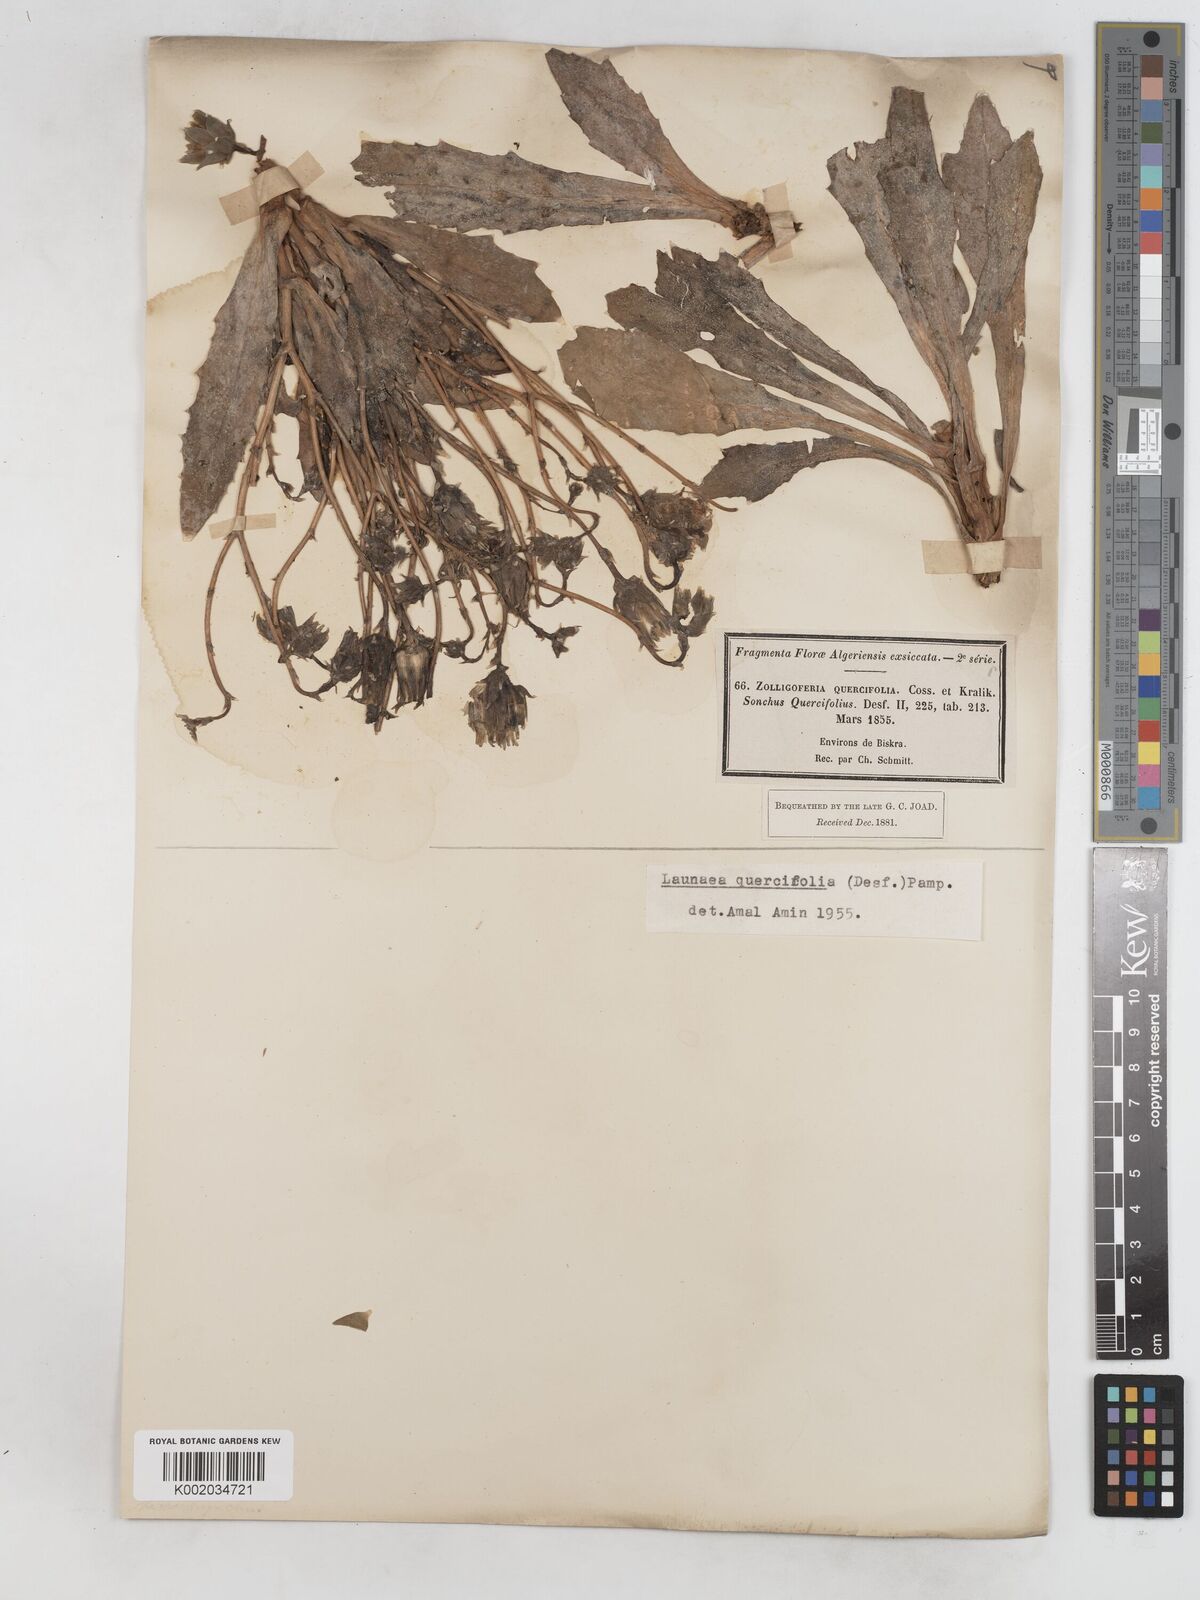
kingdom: Plantae
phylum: Tracheophyta
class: Magnoliopsida
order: Asterales
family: Asteraceae
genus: Launaea
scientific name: Launaea quercifolia
